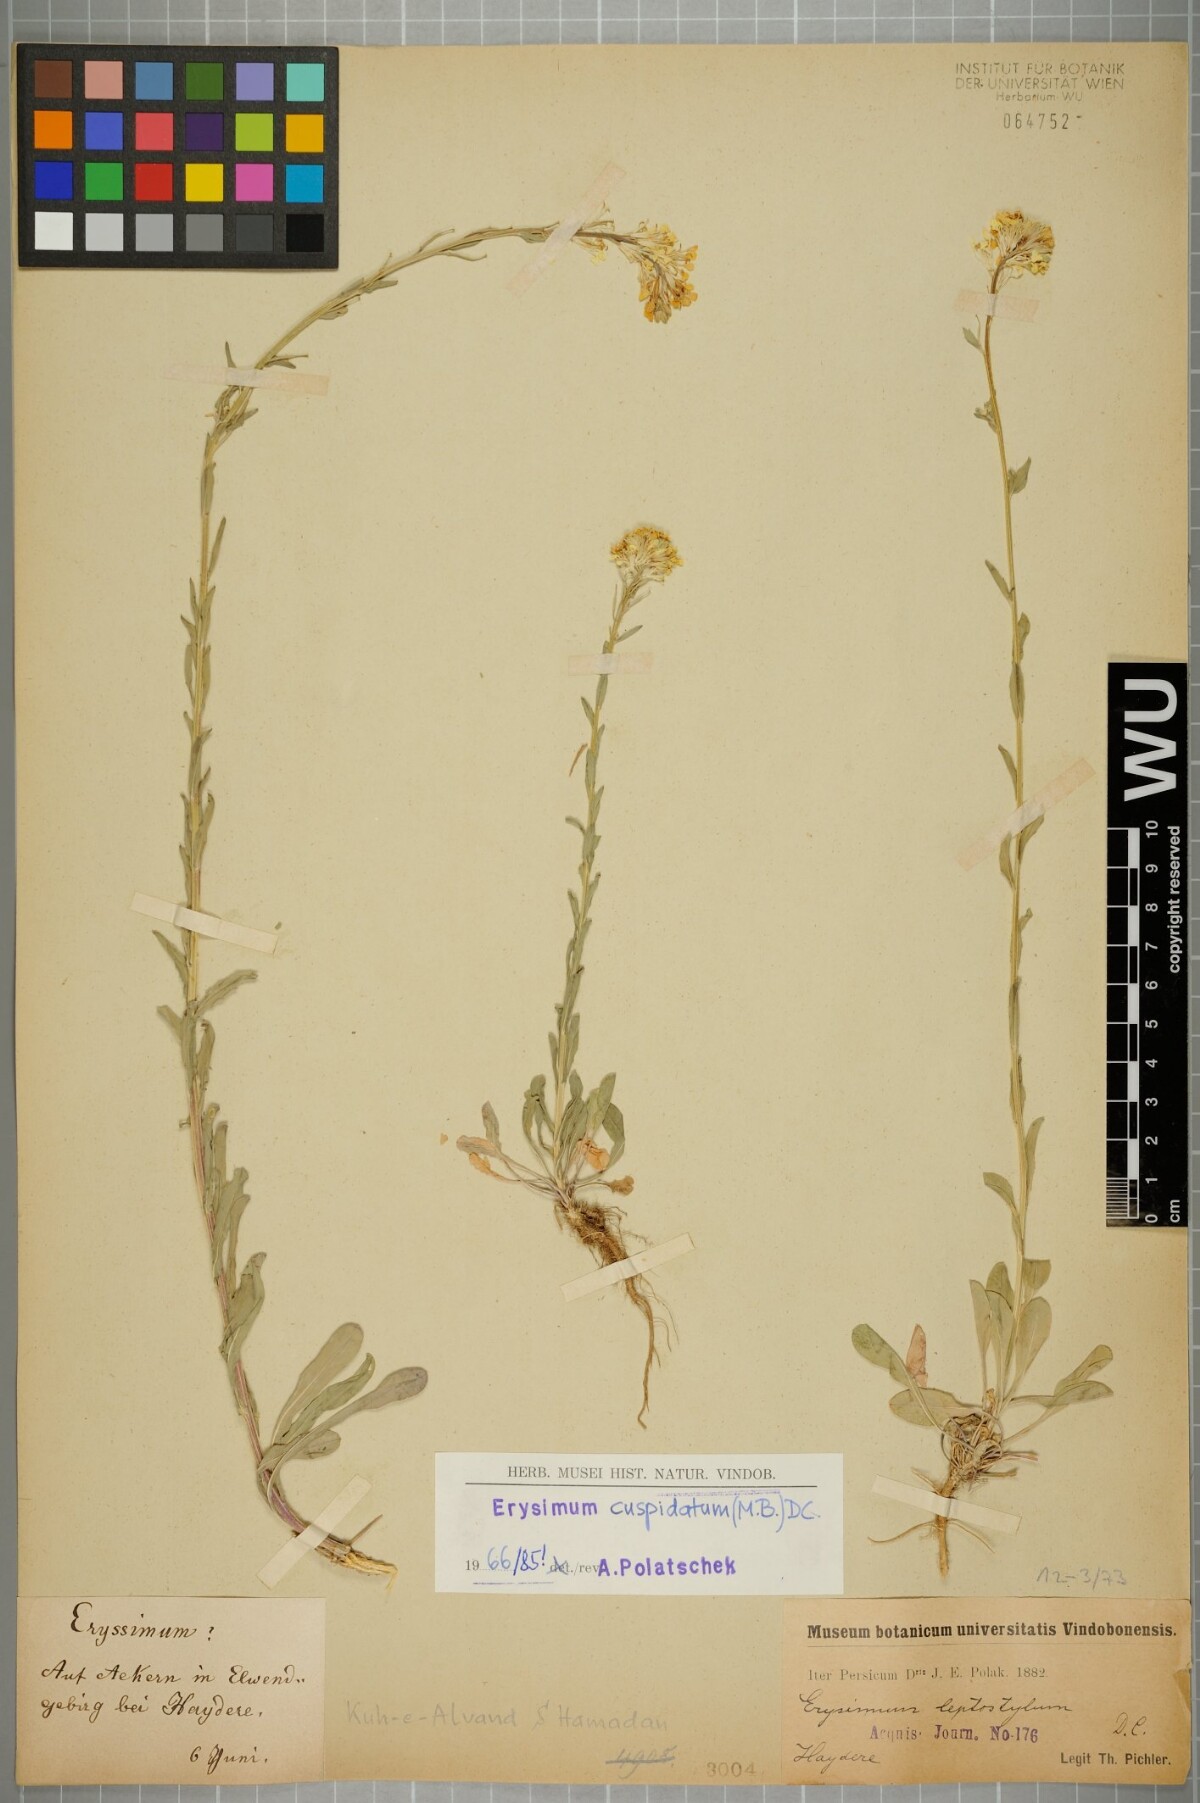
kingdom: Plantae
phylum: Tracheophyta
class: Magnoliopsida
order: Brassicales
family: Brassicaceae
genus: Erysimum
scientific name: Erysimum cuspidatum
